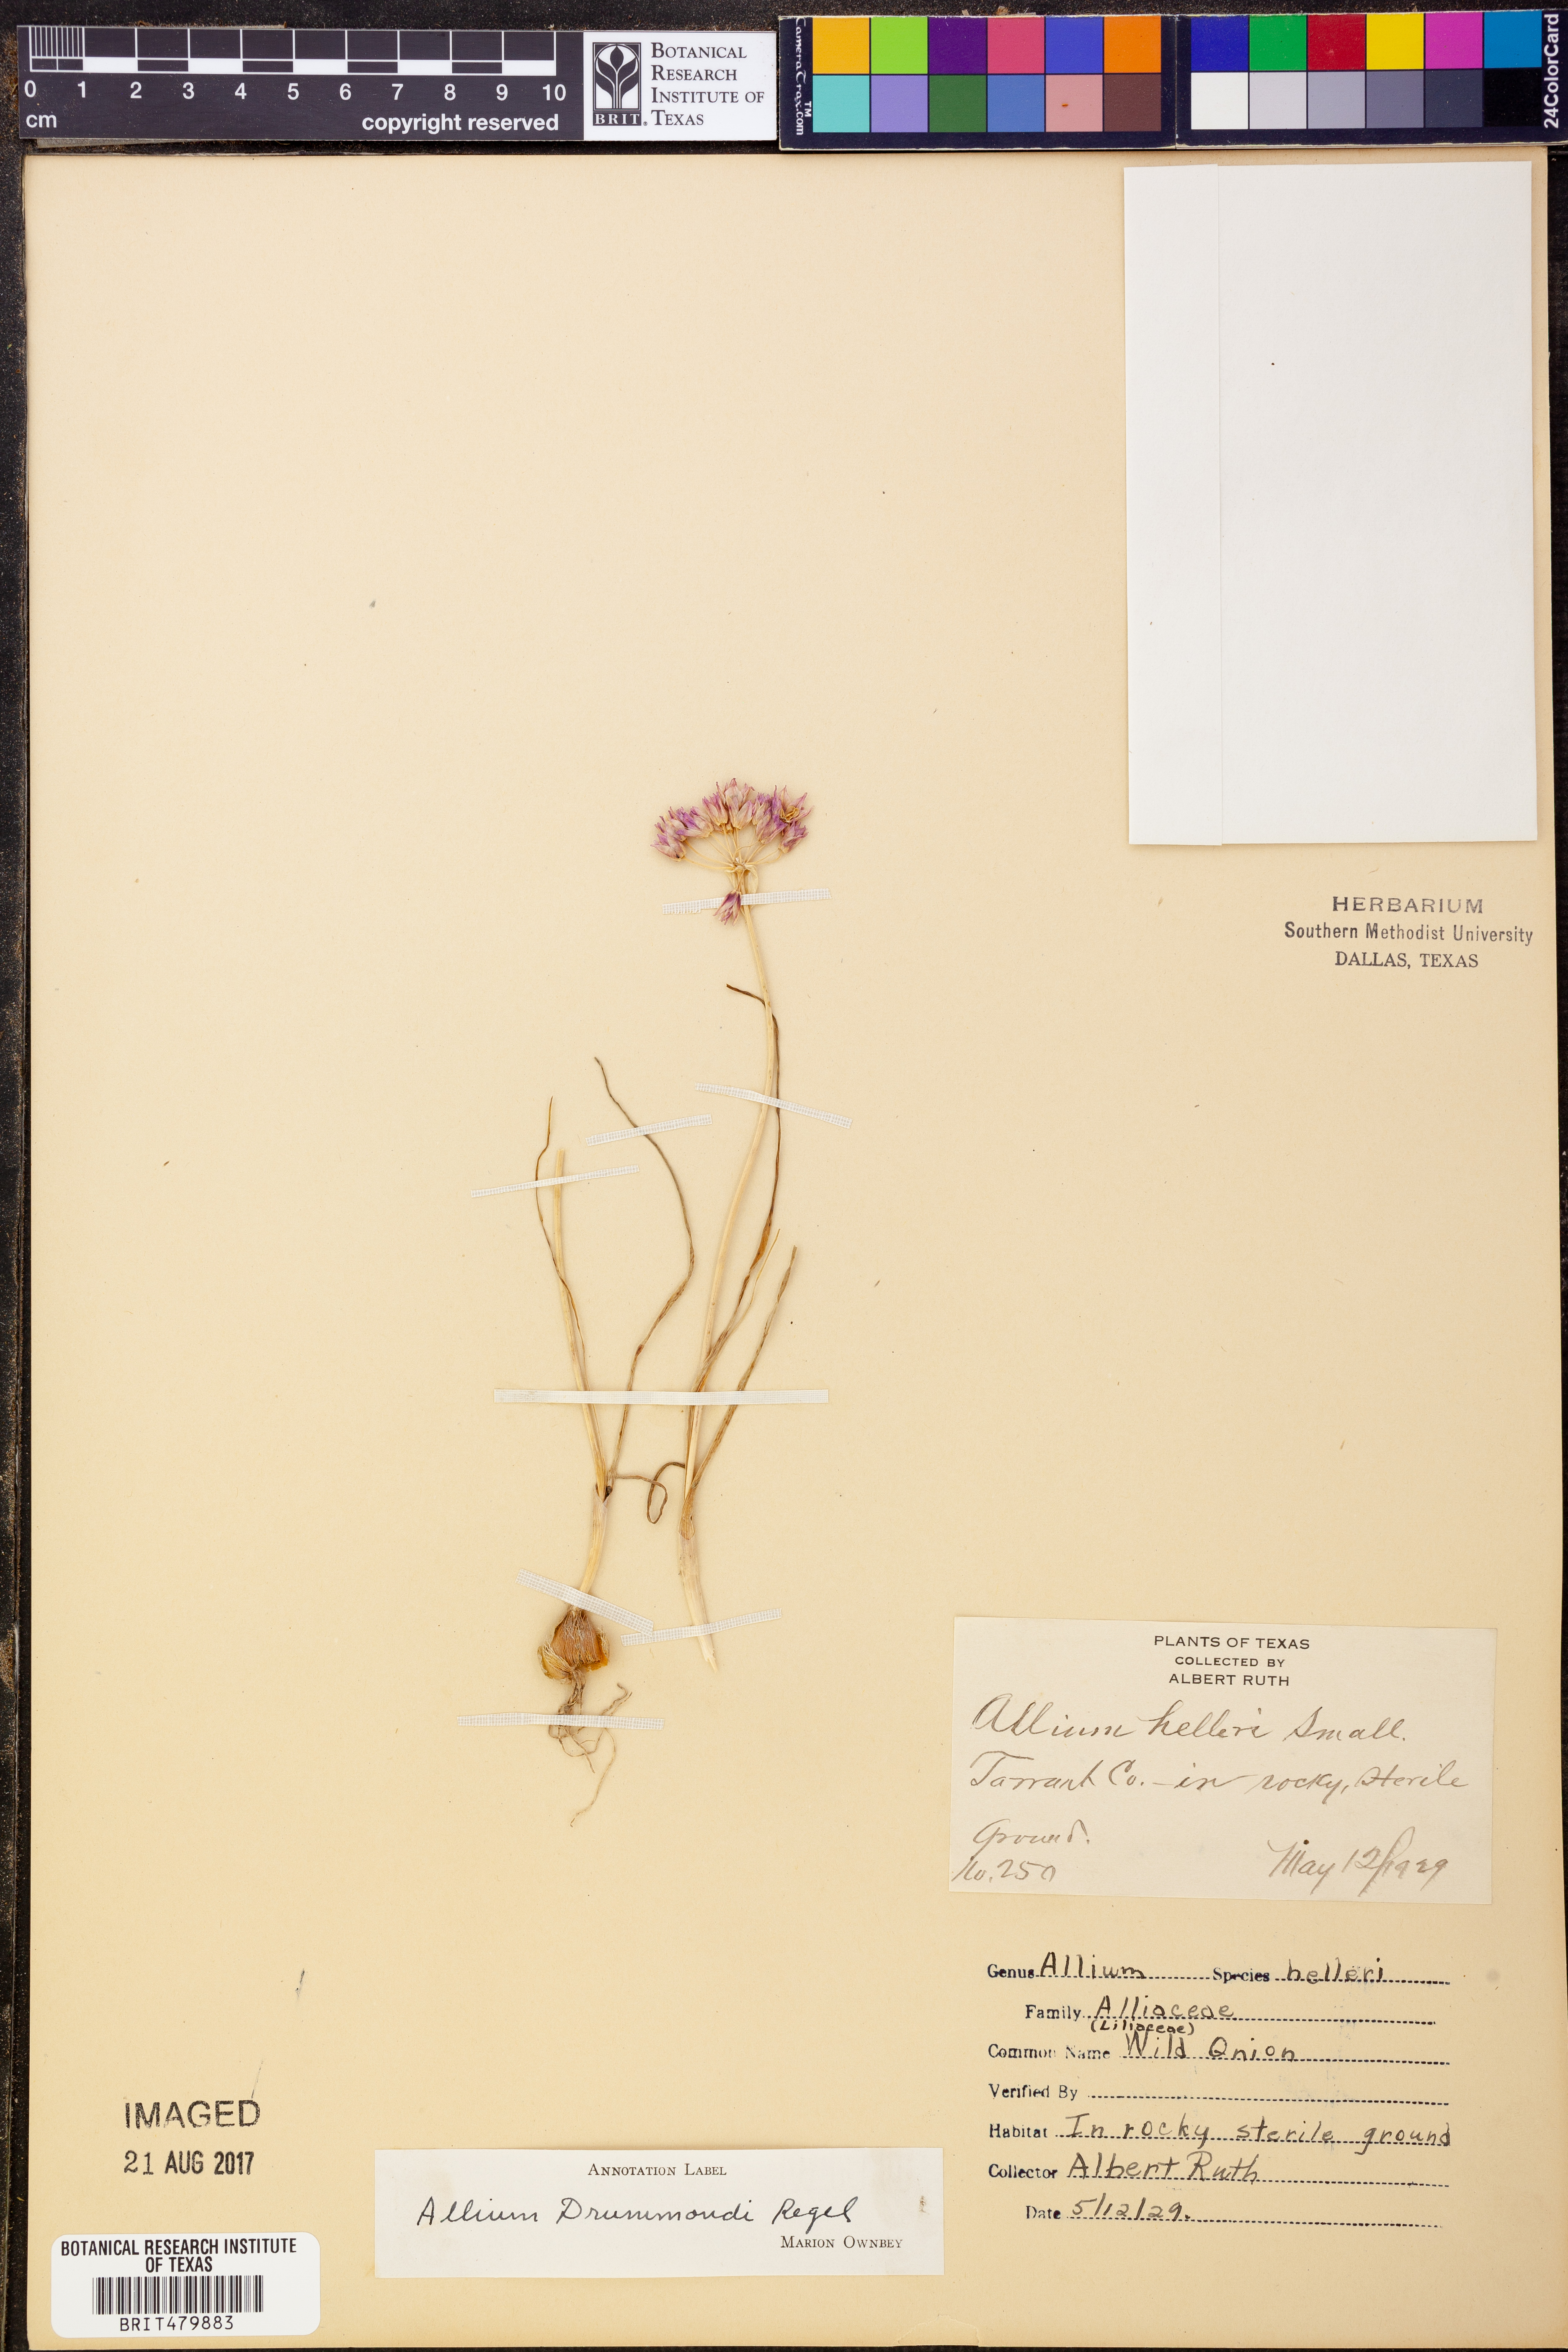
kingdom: Plantae
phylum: Tracheophyta
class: Liliopsida
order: Asparagales
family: Amaryllidaceae
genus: Allium
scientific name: Allium drummondii
